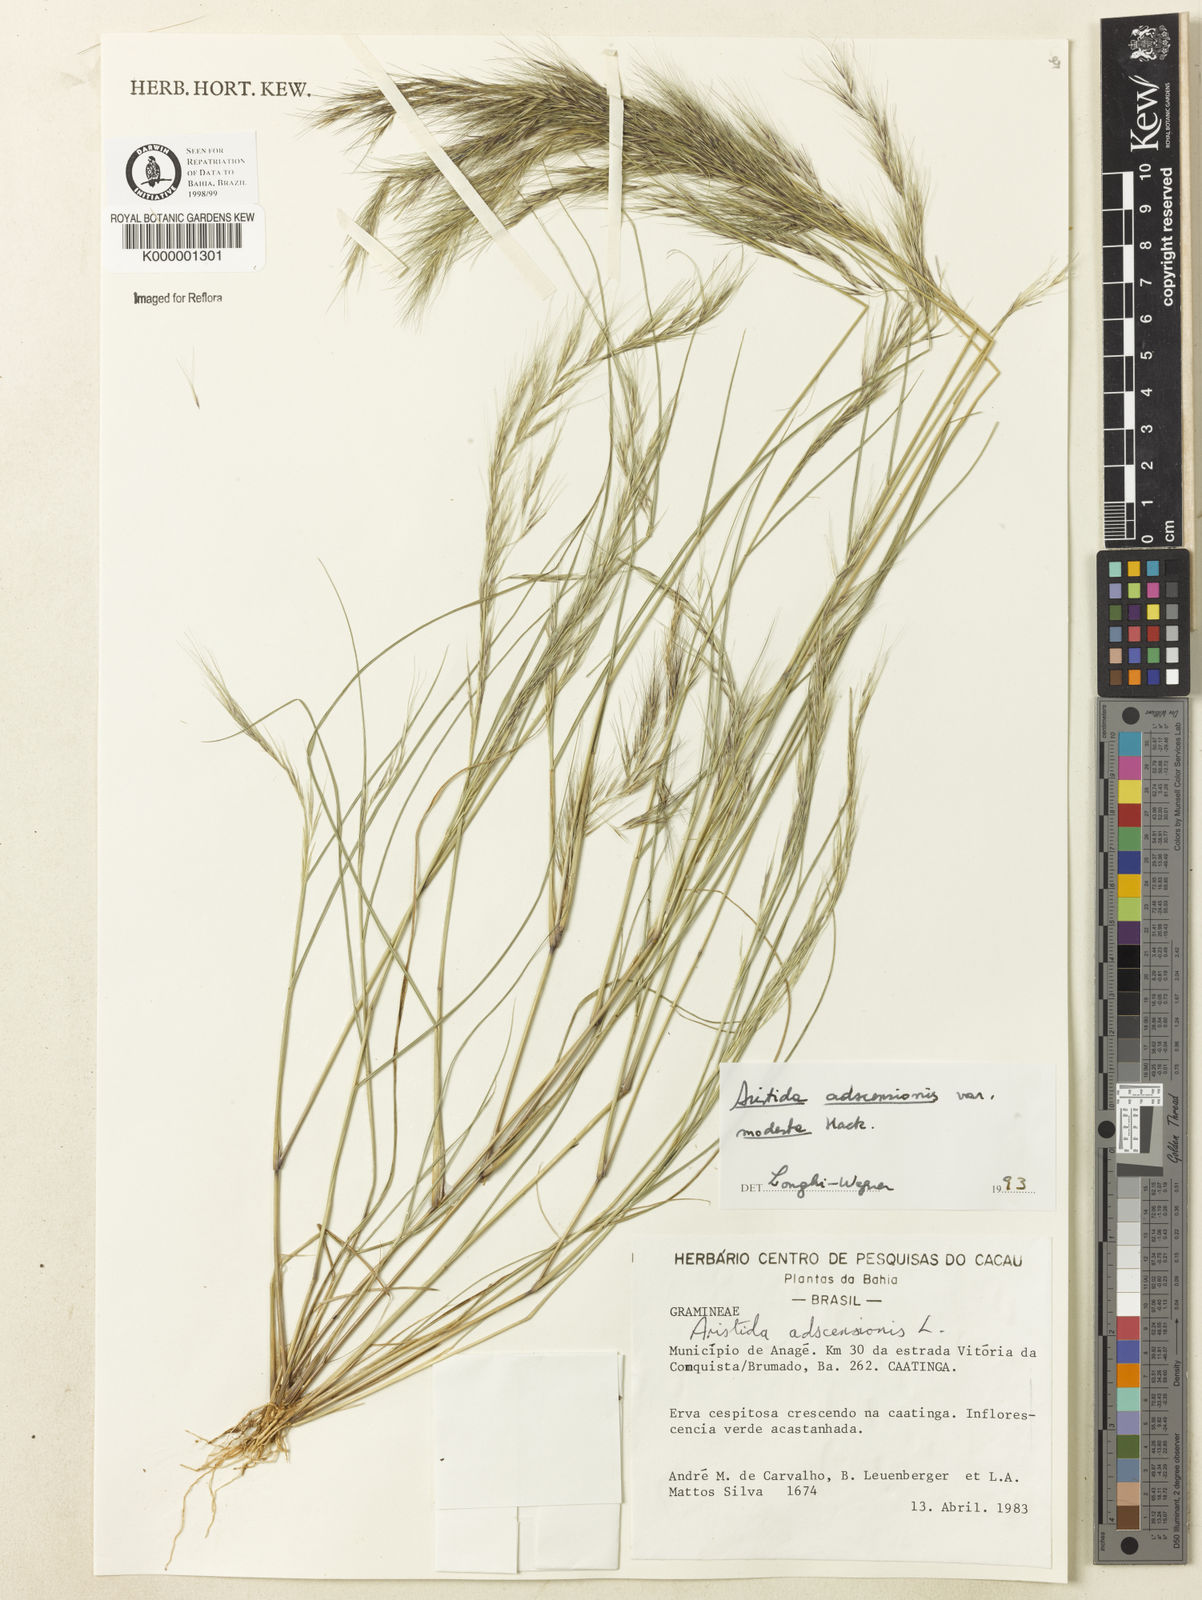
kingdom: Plantae
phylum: Tracheophyta
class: Liliopsida
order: Poales
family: Poaceae
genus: Aristida
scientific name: Aristida adscensionis
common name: Sixweeks threeawn
